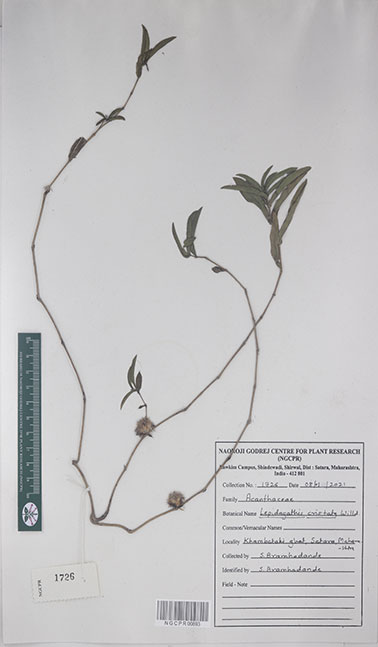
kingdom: Plantae
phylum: Tracheophyta
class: Magnoliopsida
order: Lamiales
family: Acanthaceae
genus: Lepidagathis
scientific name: Lepidagathis cristata
